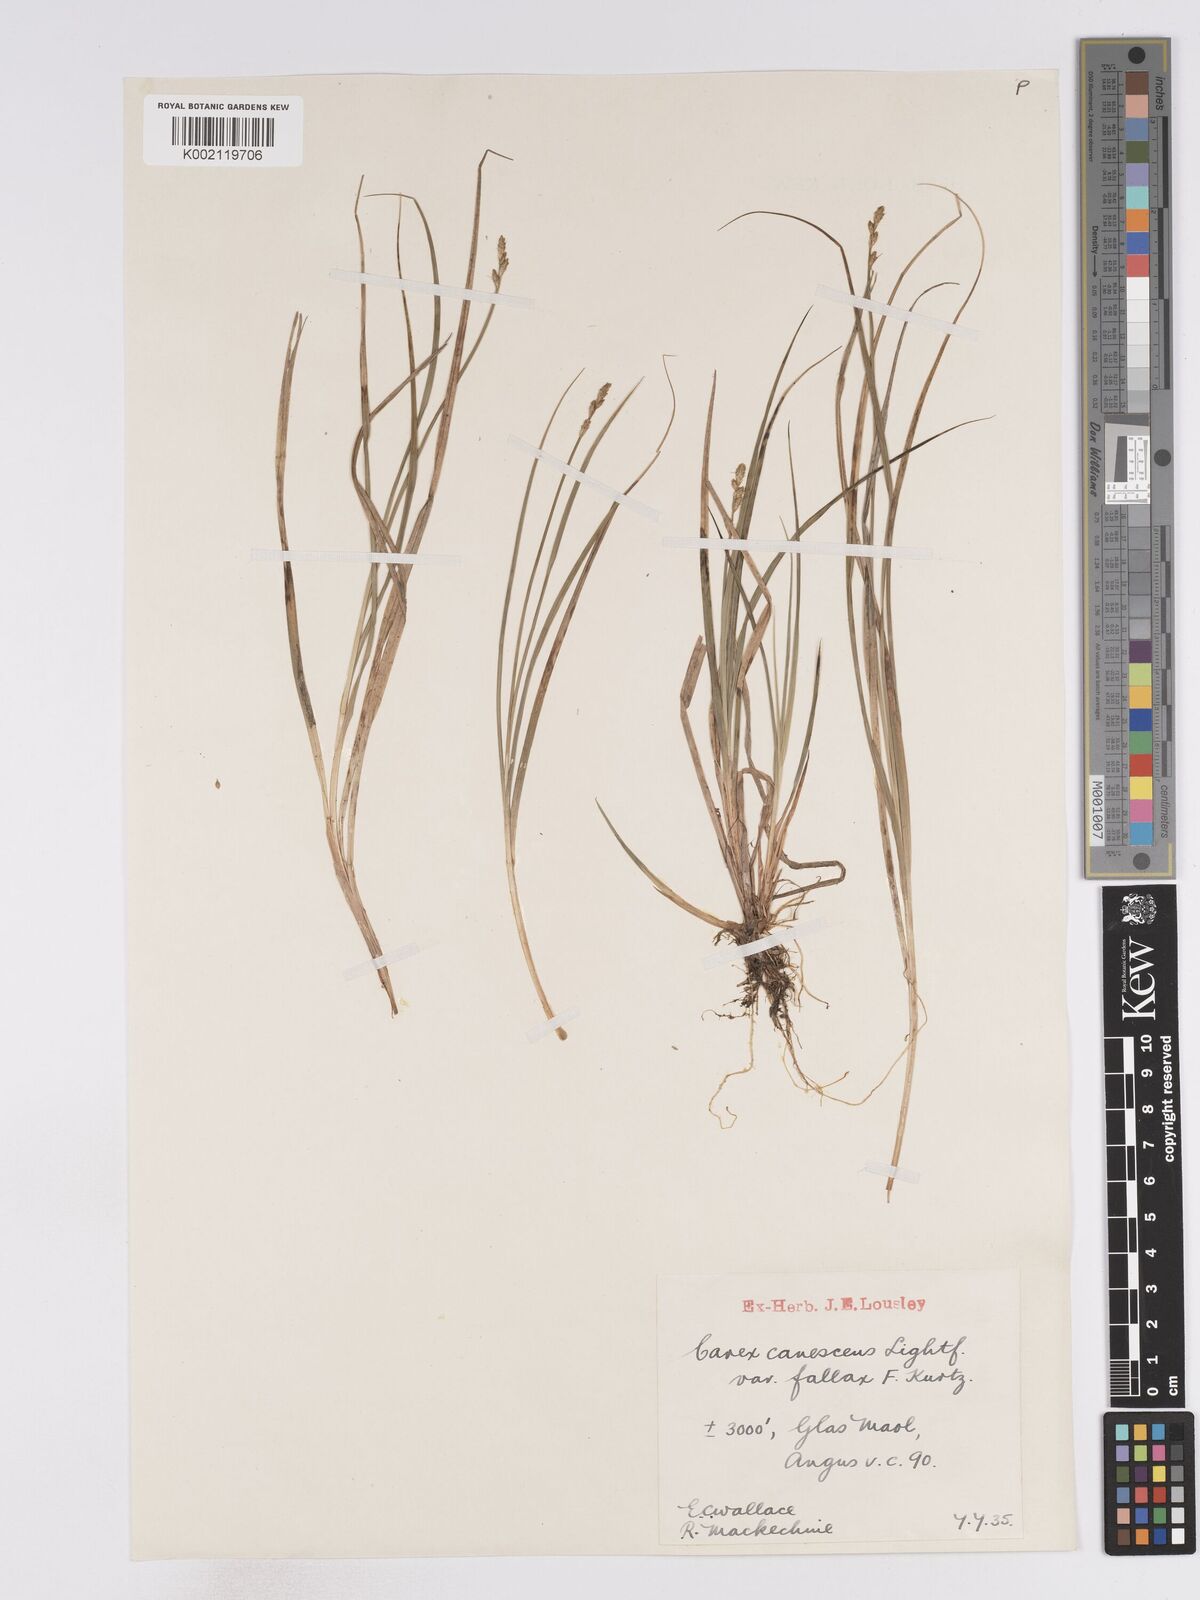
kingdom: Plantae
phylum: Tracheophyta
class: Liliopsida
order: Poales
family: Cyperaceae
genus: Carex
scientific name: Carex curta
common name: White sedge
